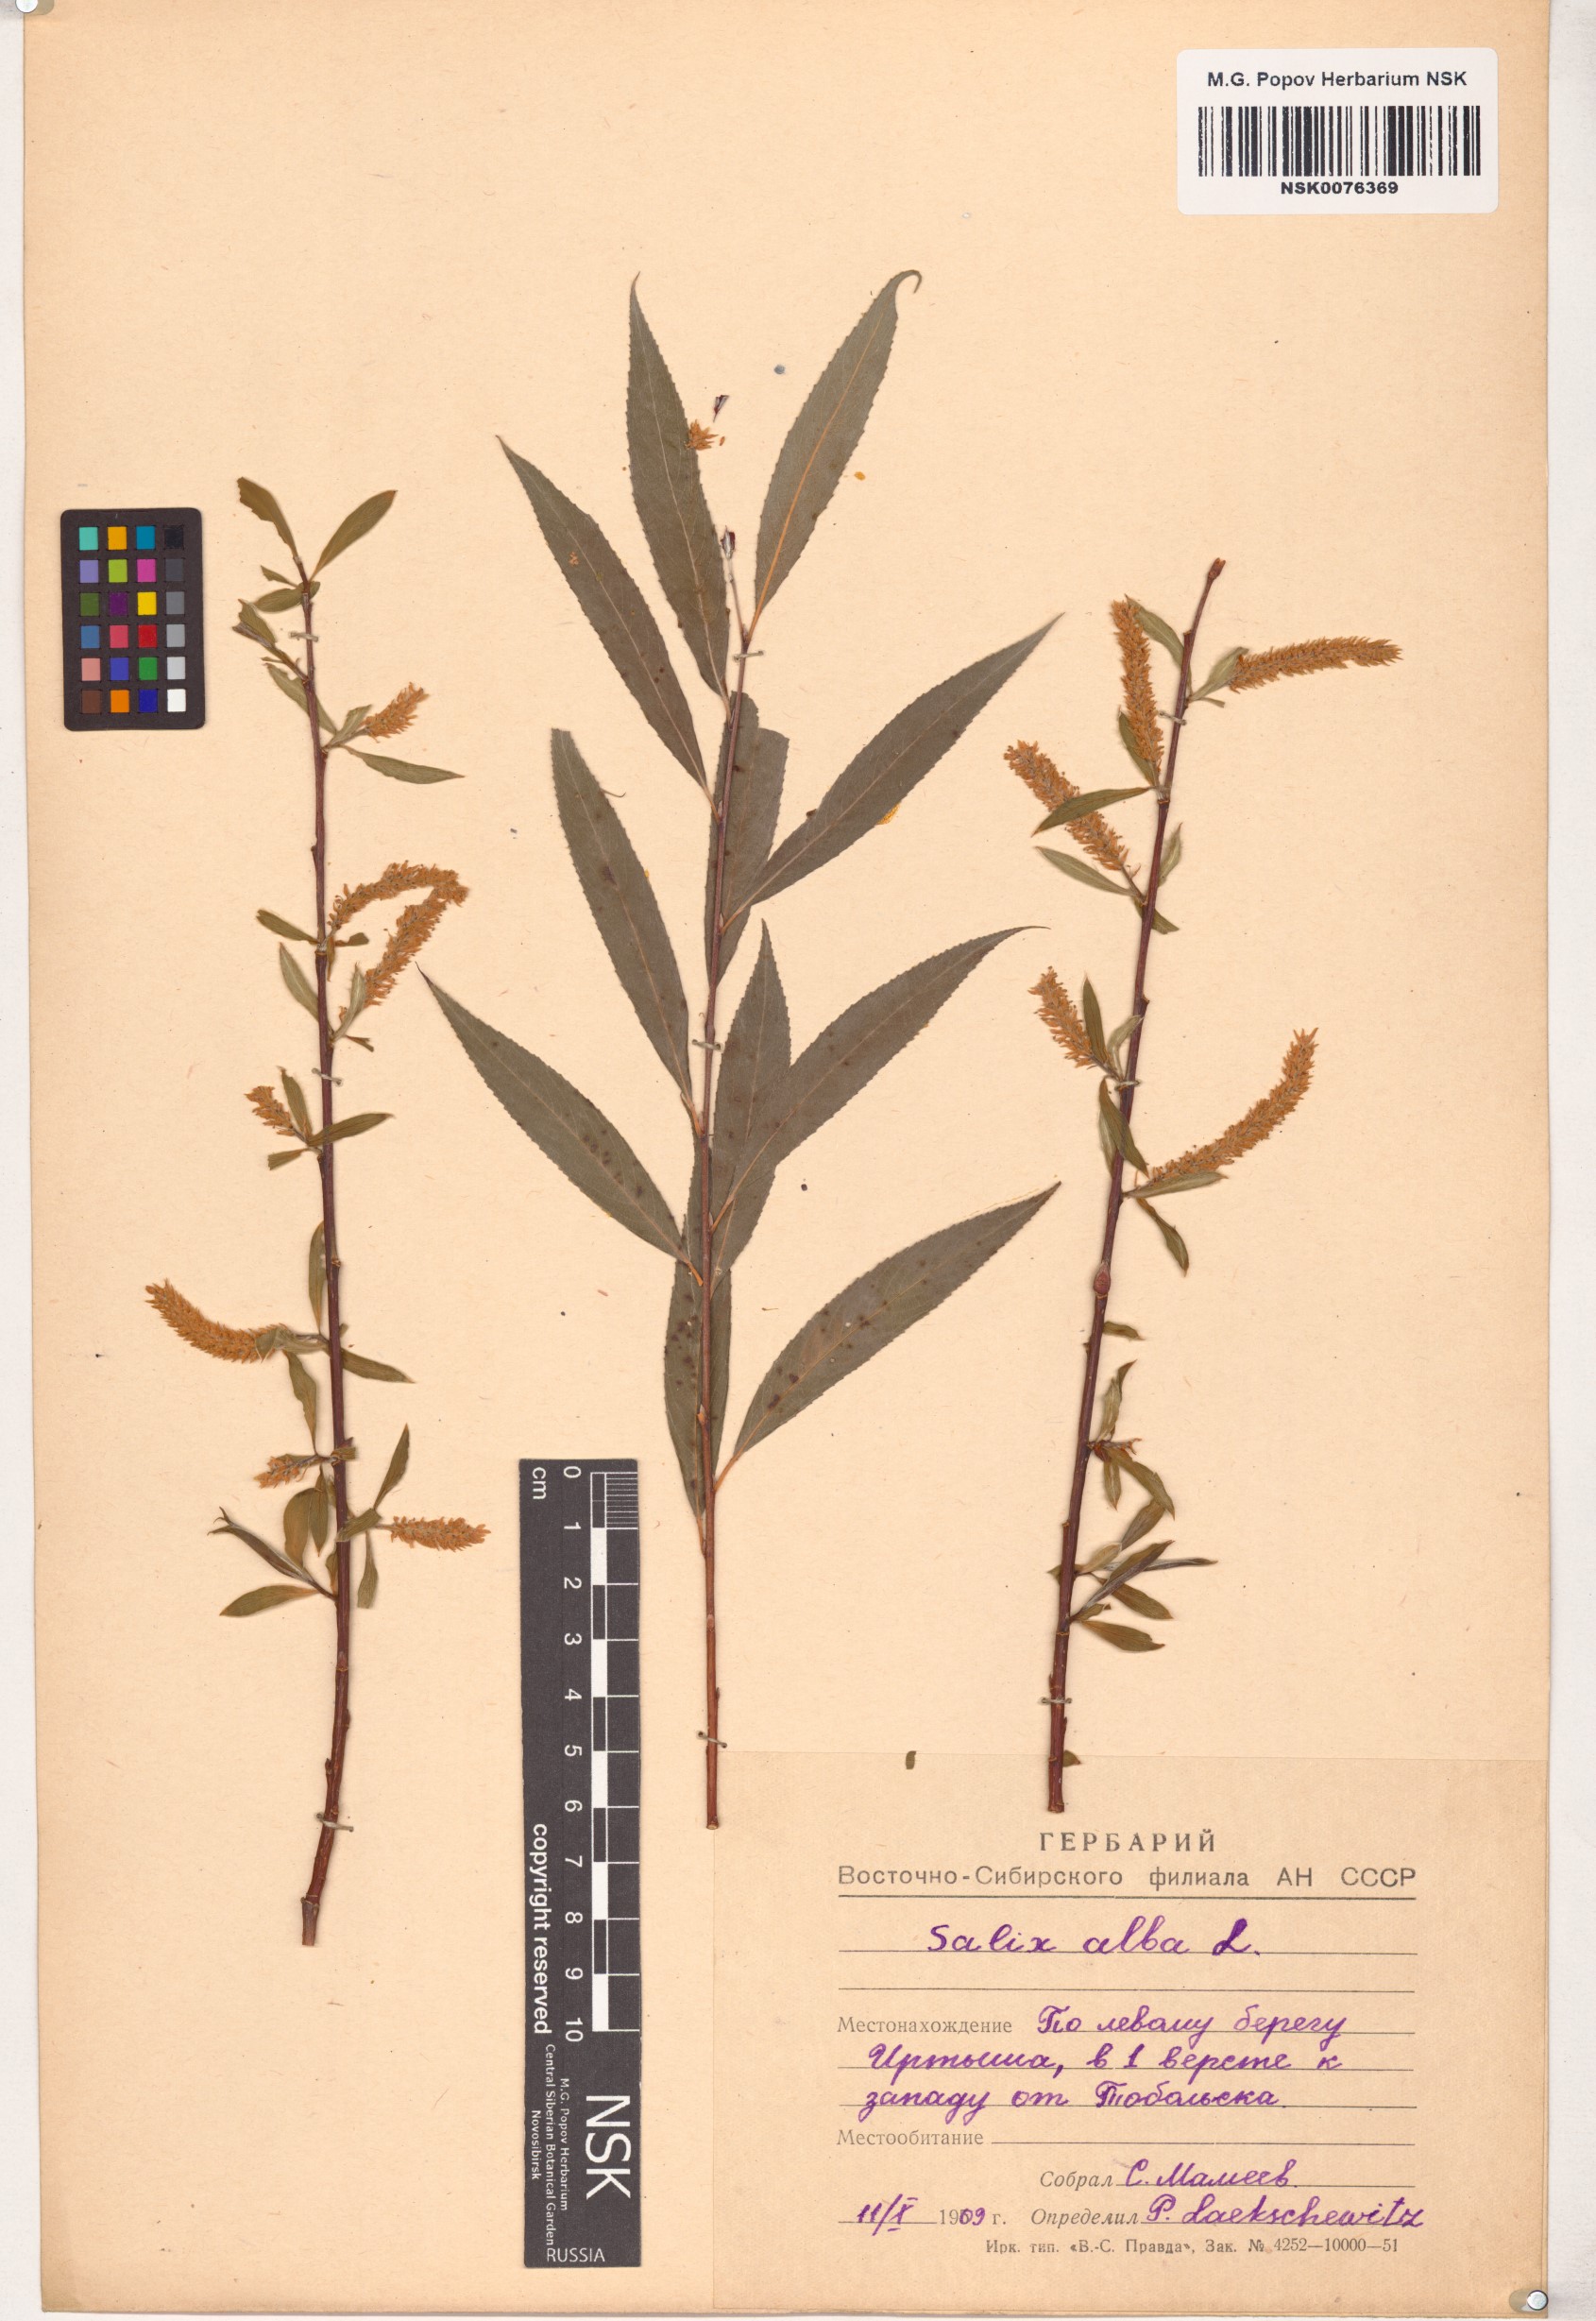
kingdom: Plantae
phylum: Tracheophyta
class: Magnoliopsida
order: Malpighiales
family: Salicaceae
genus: Salix
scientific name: Salix alba
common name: White willow
